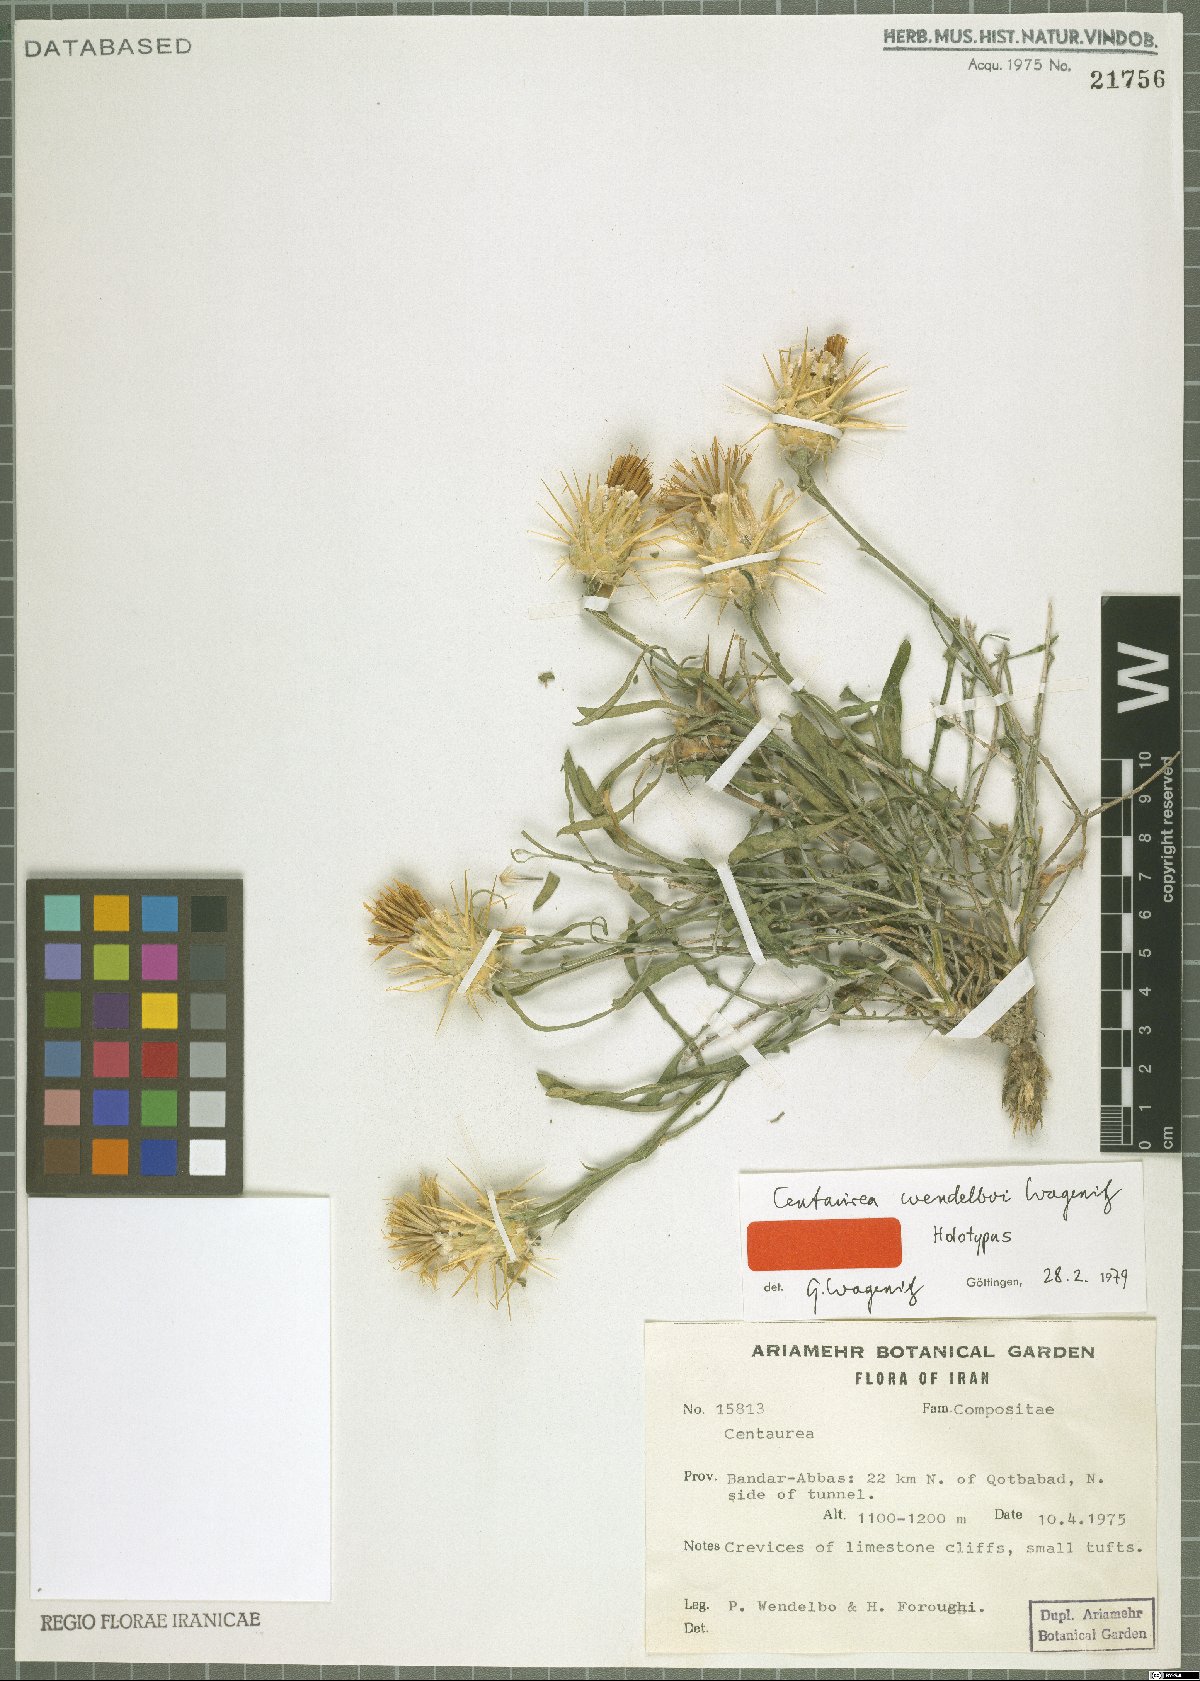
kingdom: Plantae
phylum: Tracheophyta
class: Magnoliopsida
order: Asterales
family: Asteraceae
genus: Centaurea
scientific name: Centaurea wendelboi
